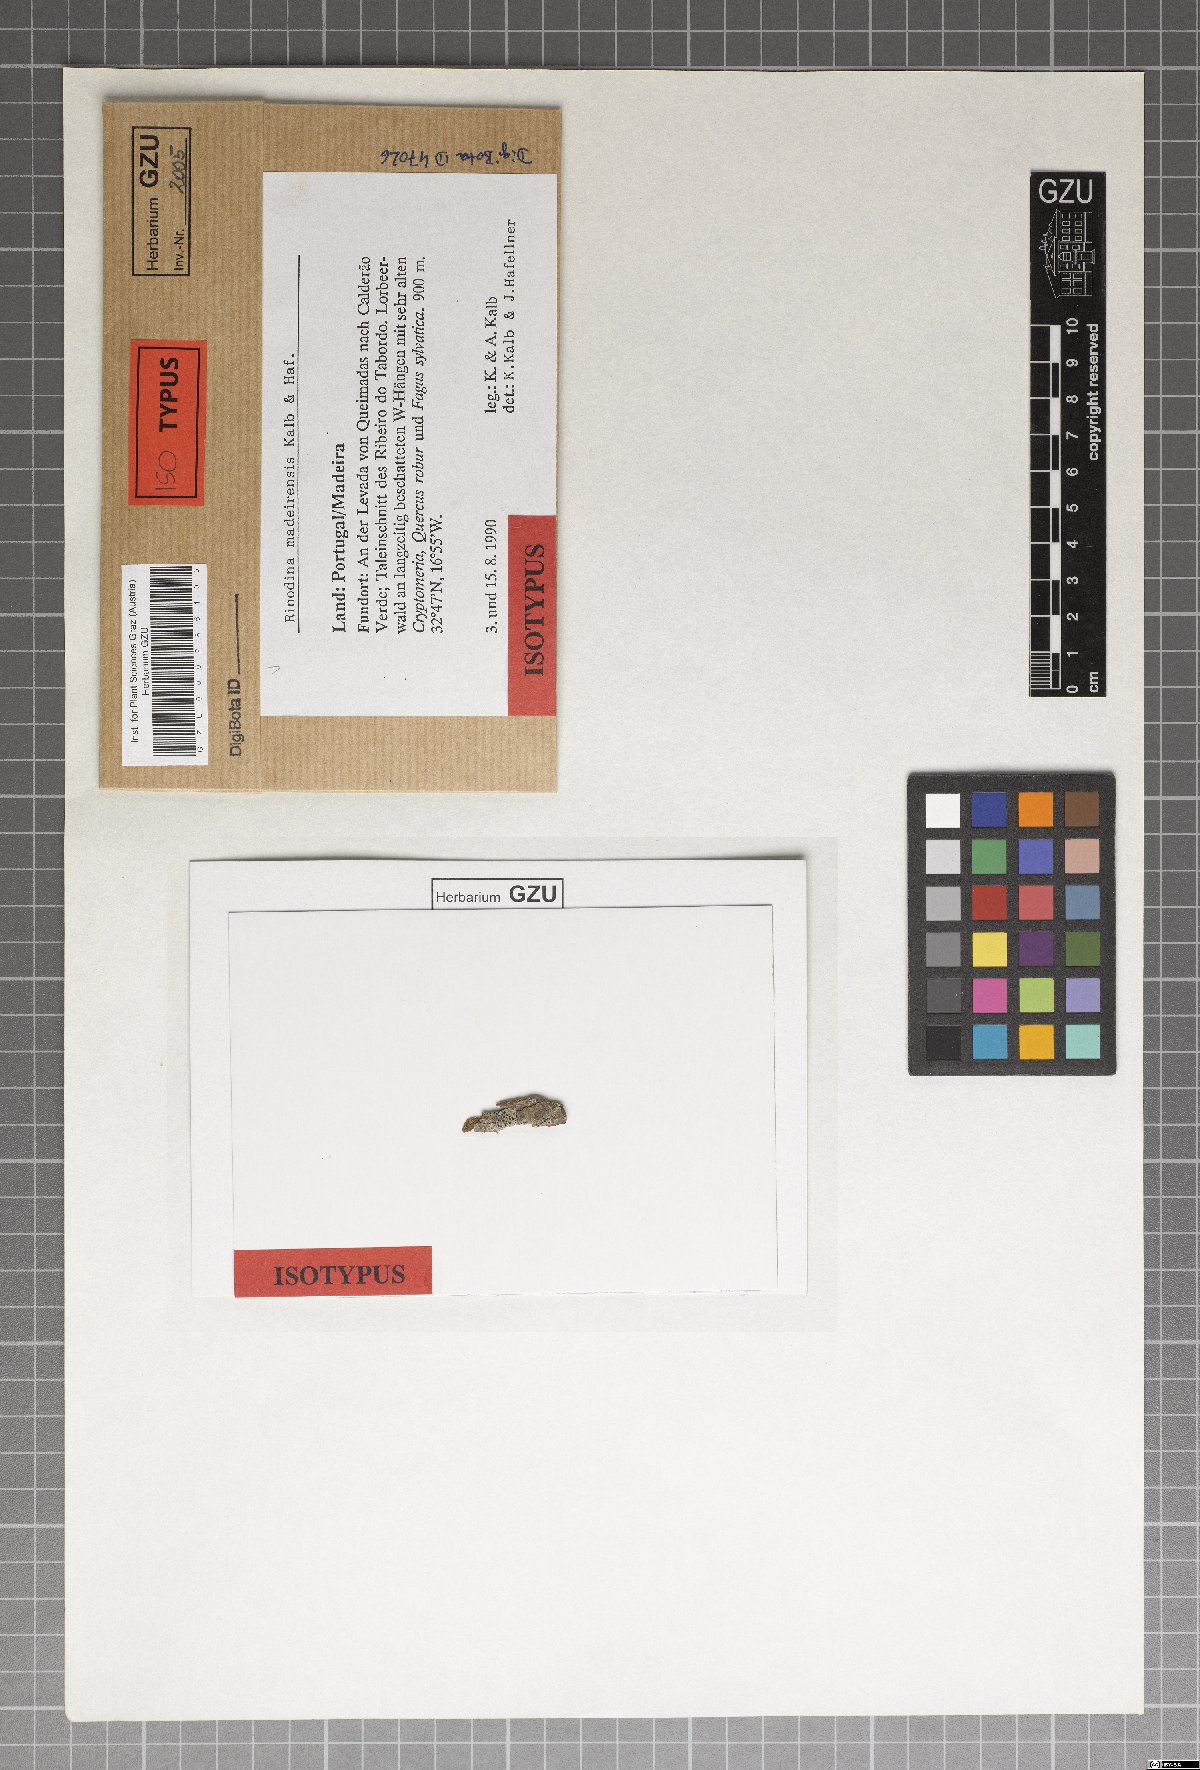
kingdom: Fungi
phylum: Ascomycota
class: Lecanoromycetes
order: Caliciales
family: Physciaceae
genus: Rinodina
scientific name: Rinodina madeirensis
